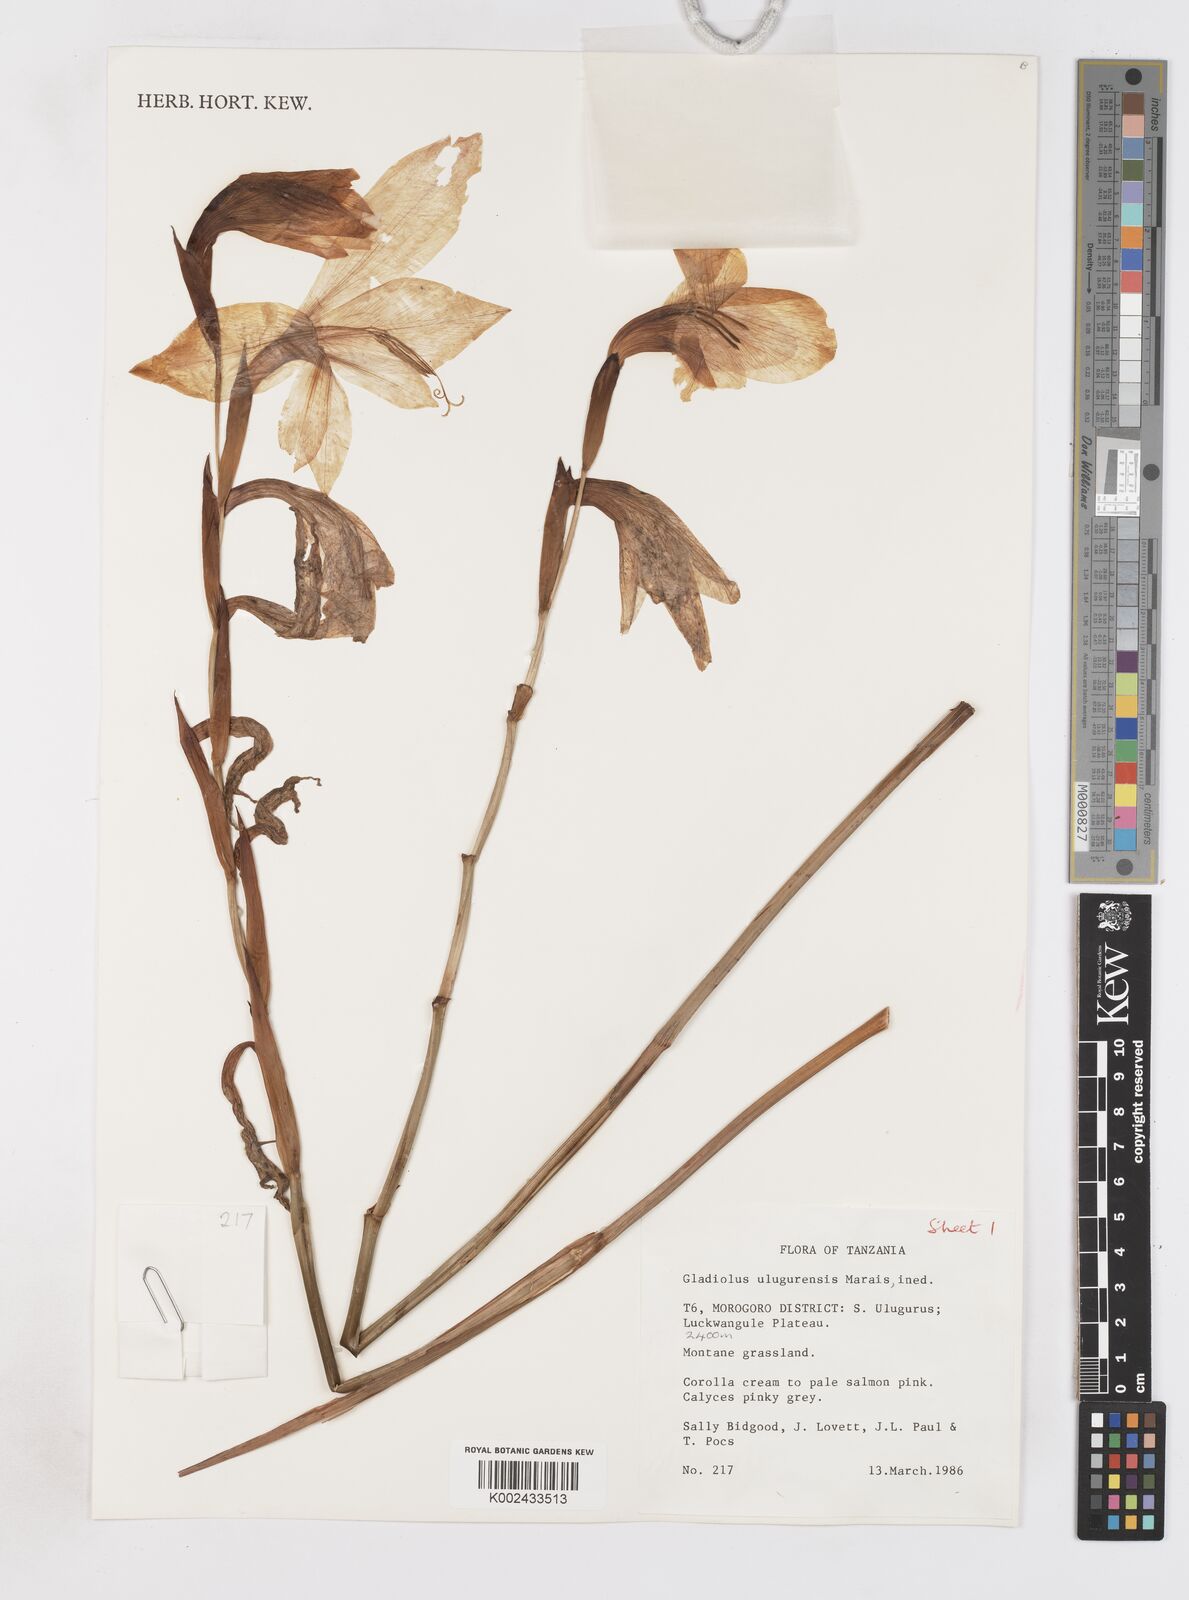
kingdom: Plantae
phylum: Tracheophyta
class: Liliopsida
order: Asparagales
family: Iridaceae
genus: Gladiolus
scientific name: Gladiolus dalenii
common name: Cornflag
